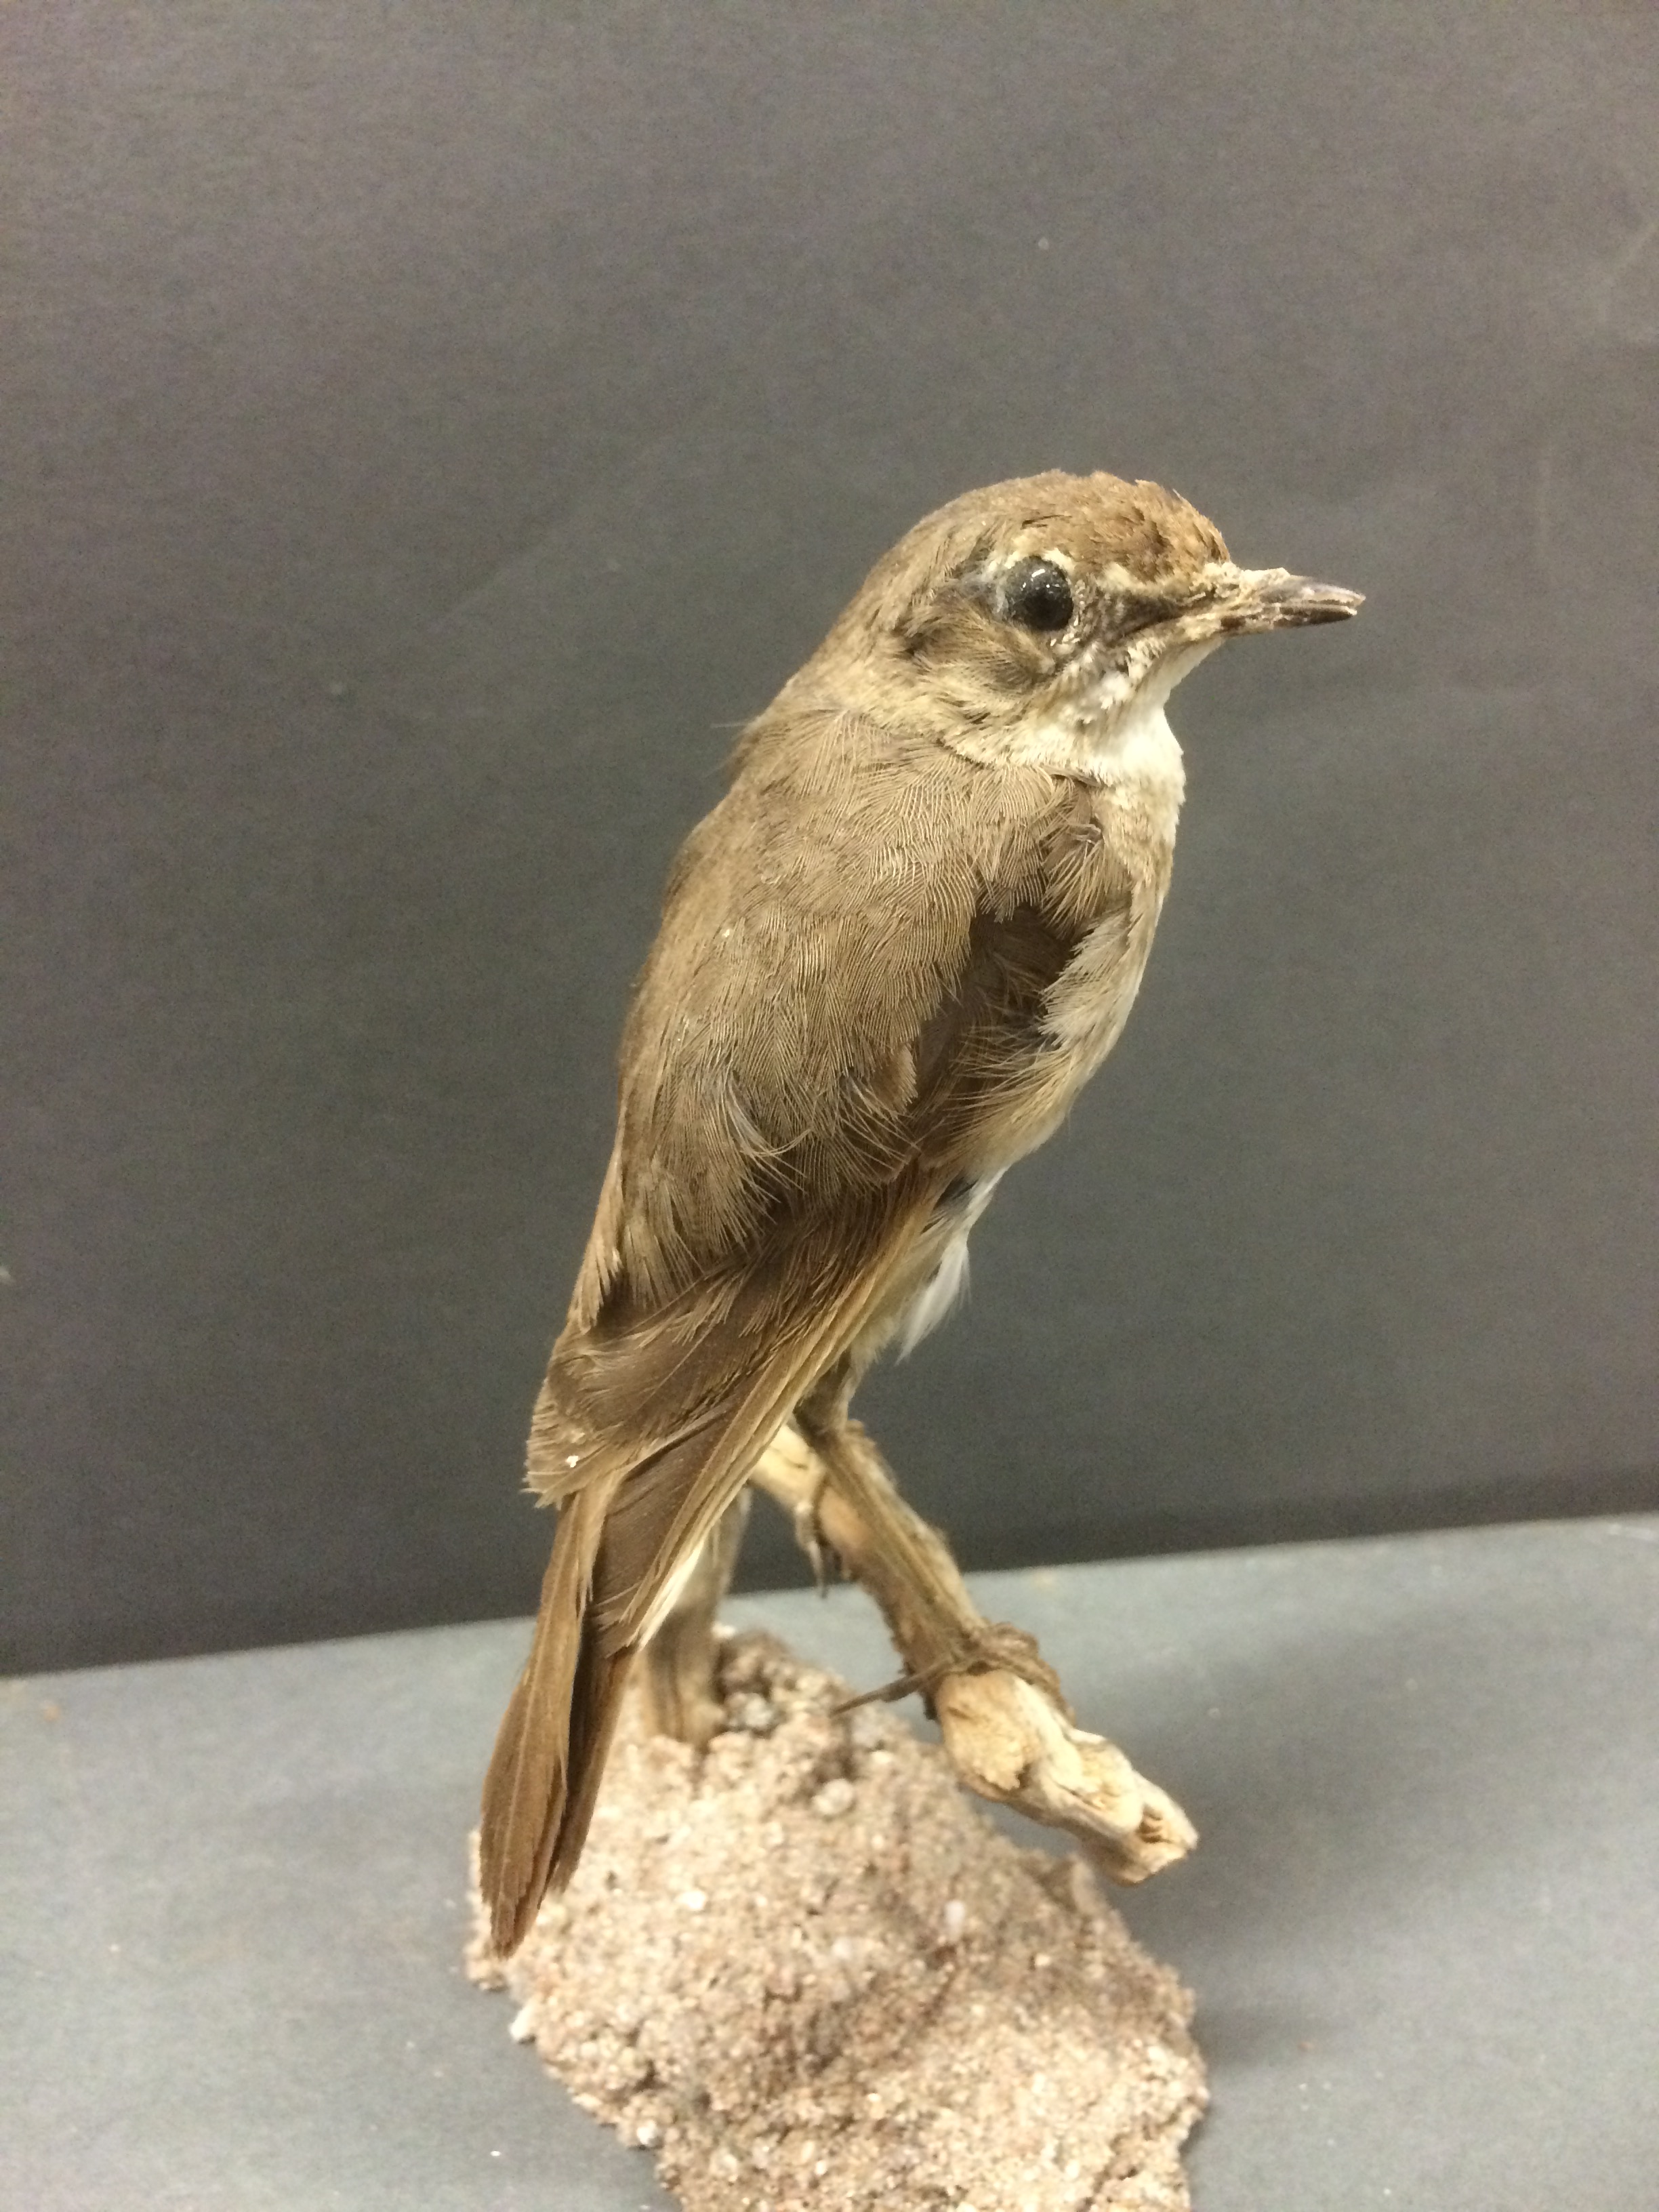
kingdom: Animalia
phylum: Chordata
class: Aves
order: Passeriformes
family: Muscicapidae
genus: Luscinia
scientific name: Luscinia calliope
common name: Siberian rubythroat
